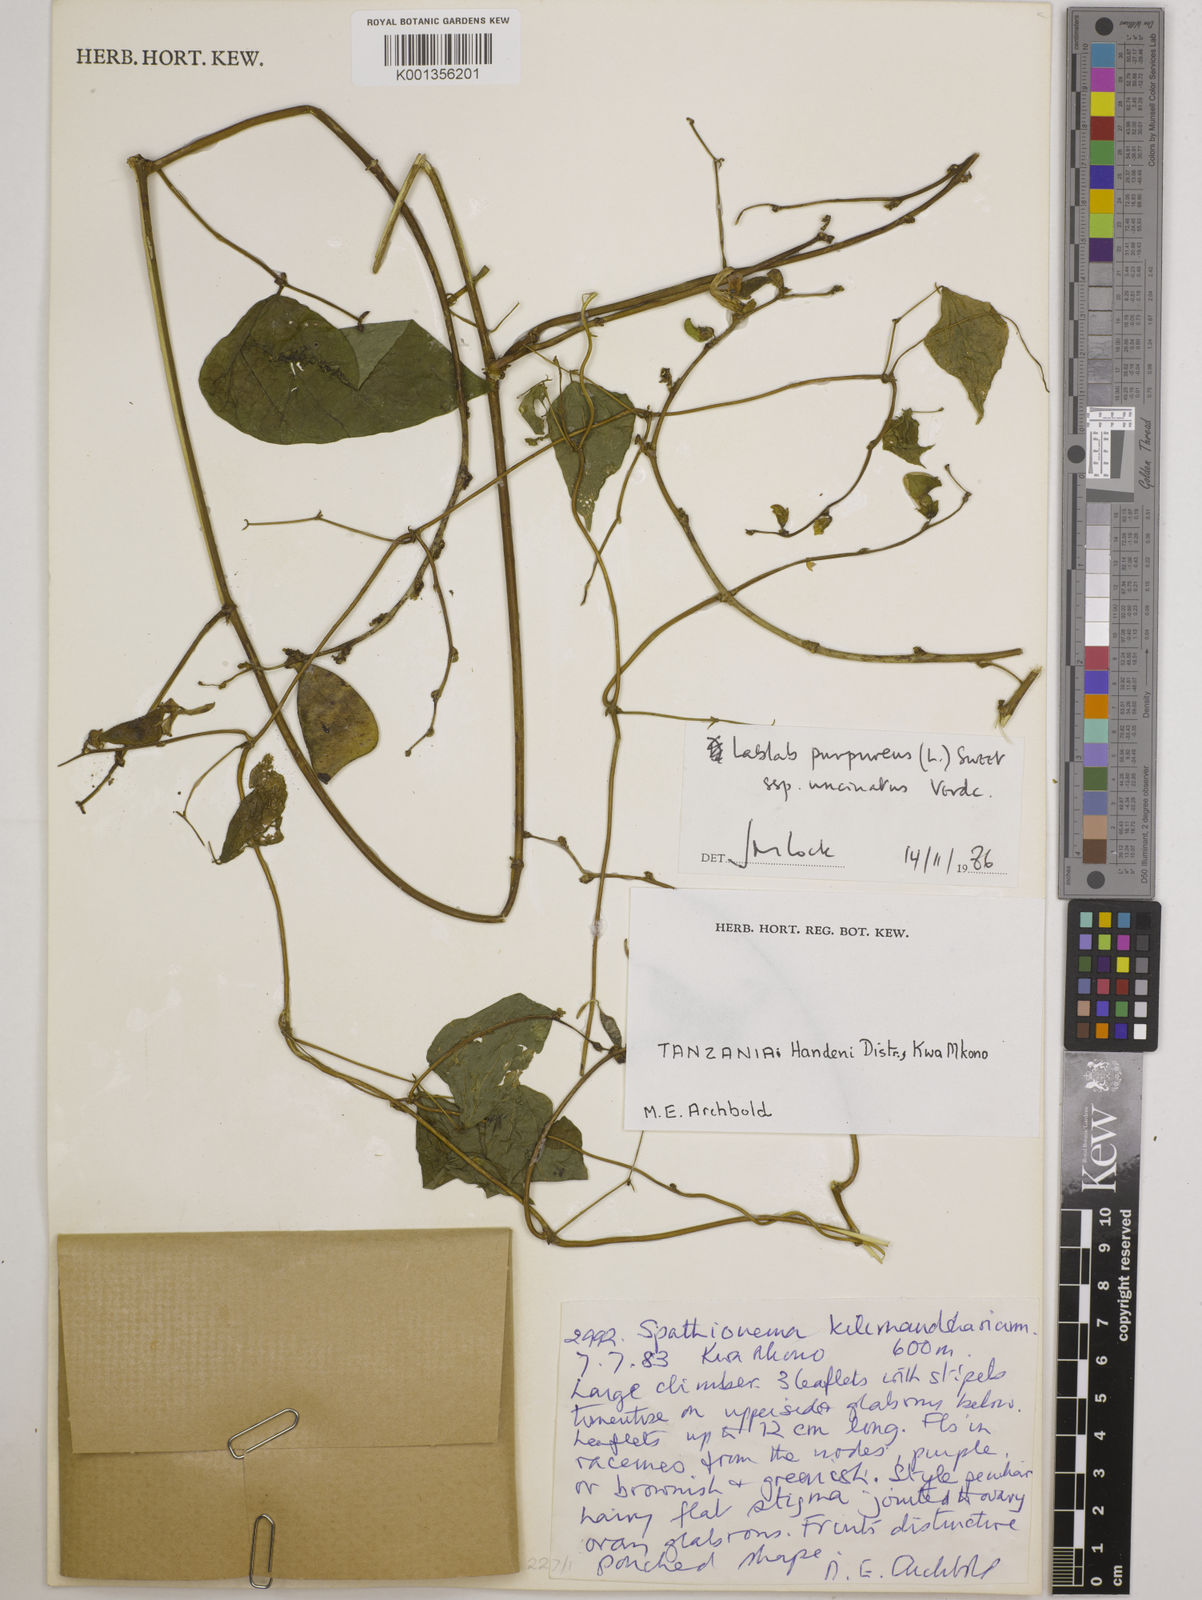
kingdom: Plantae
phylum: Tracheophyta
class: Magnoliopsida
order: Fabales
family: Fabaceae
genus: Lablab
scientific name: Lablab purpureus
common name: Lablab-bean
